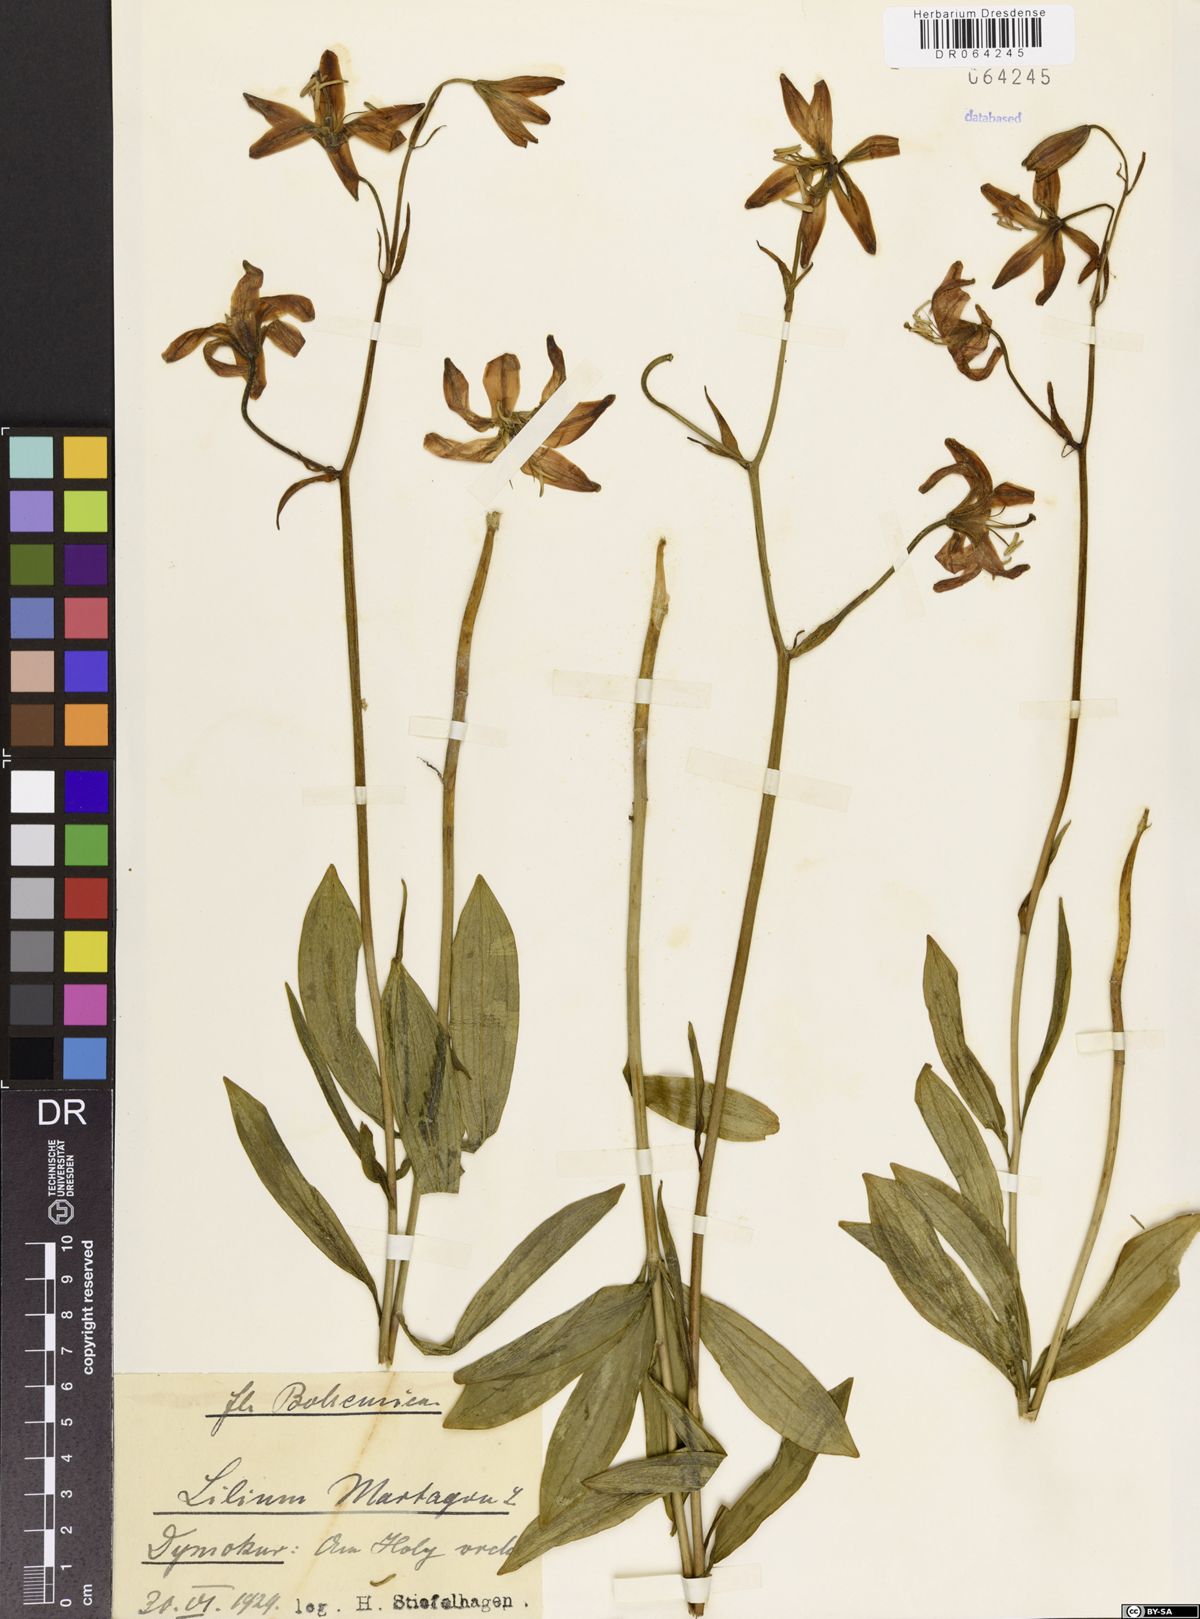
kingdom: Plantae
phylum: Tracheophyta
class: Liliopsida
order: Liliales
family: Liliaceae
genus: Lilium
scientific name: Lilium martagon
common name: Martagon lily
